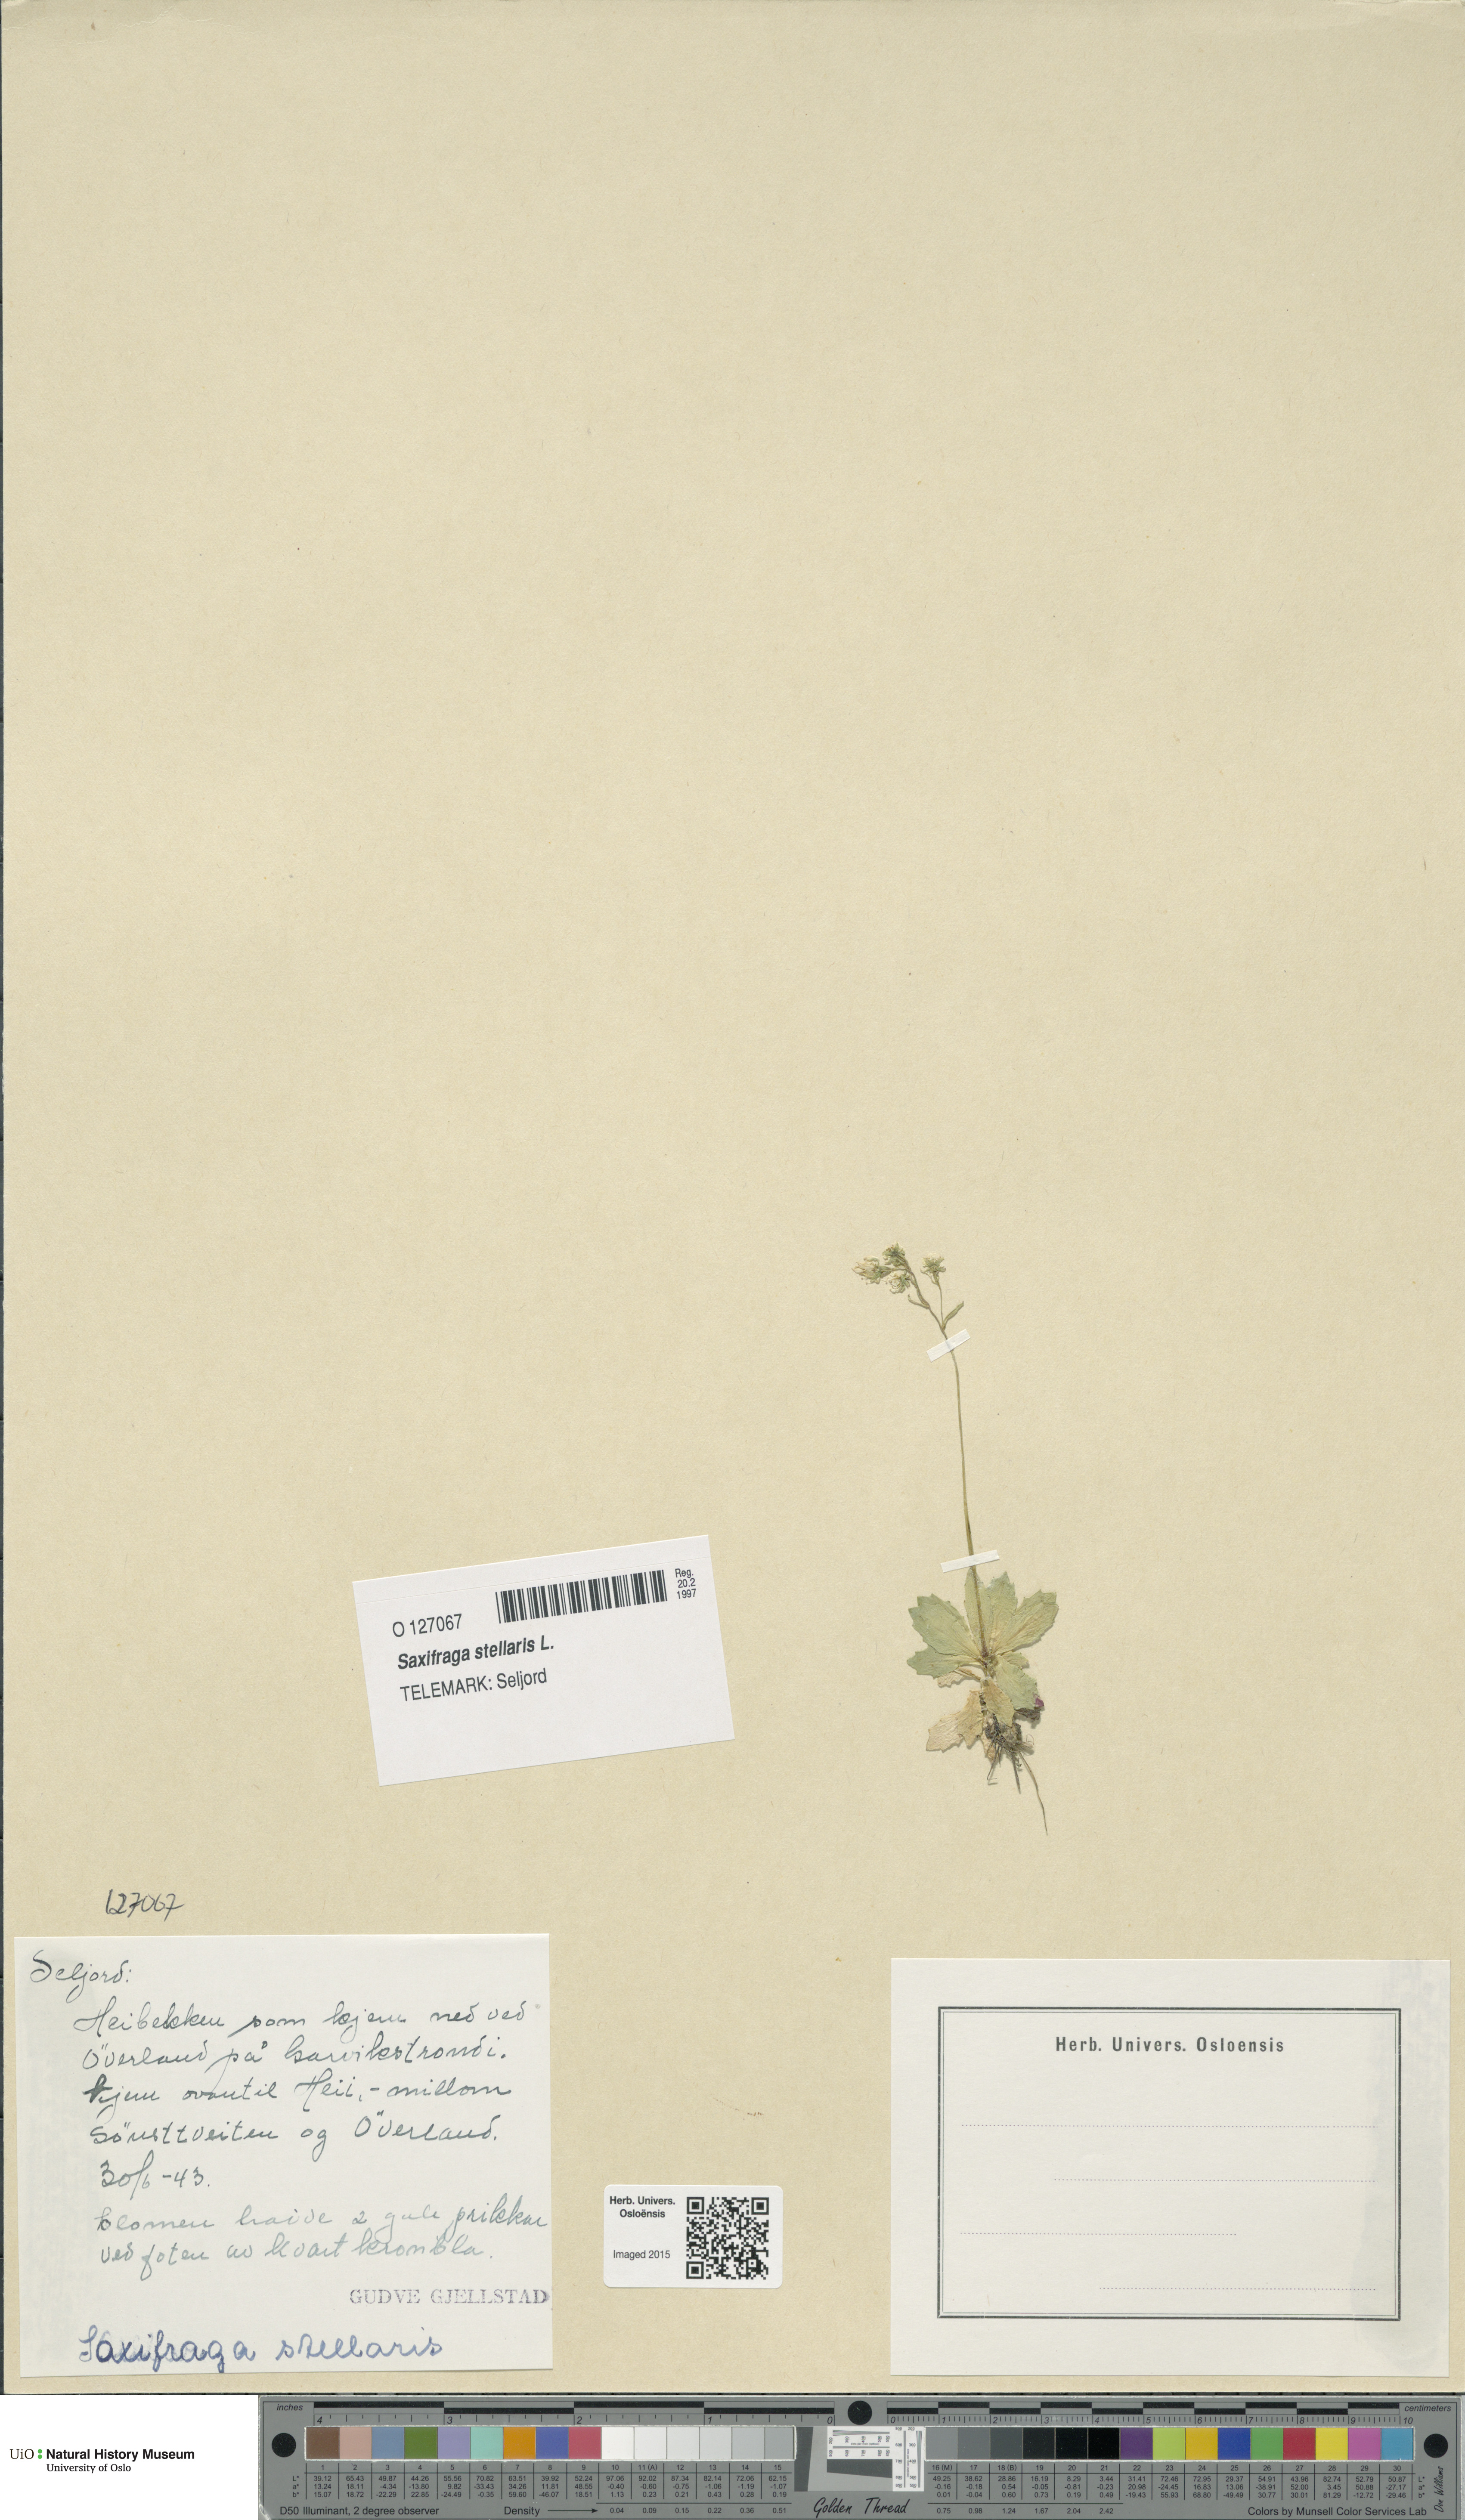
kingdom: Plantae
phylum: Tracheophyta
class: Magnoliopsida
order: Saxifragales
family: Saxifragaceae
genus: Micranthes
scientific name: Micranthes stellaris
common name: Starry saxifrage
